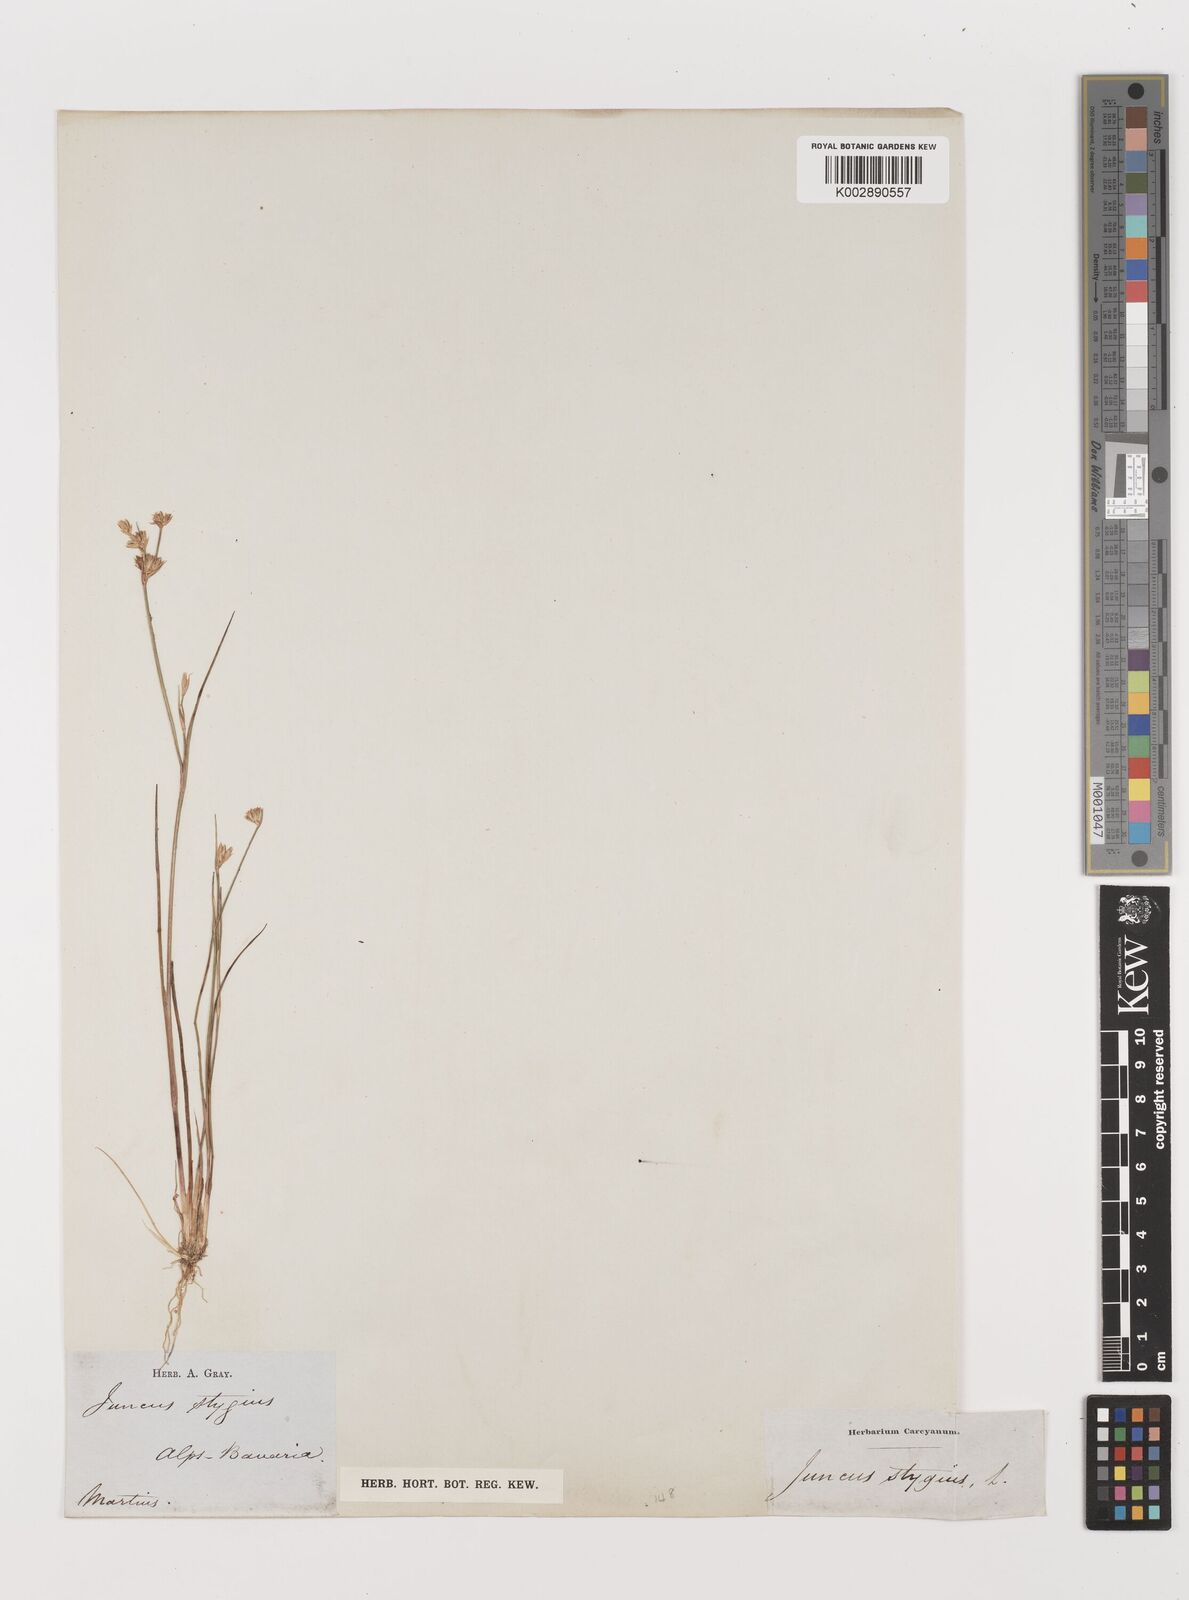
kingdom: Plantae
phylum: Tracheophyta
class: Liliopsida
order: Poales
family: Juncaceae
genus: Juncus
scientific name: Juncus stygius
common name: Bog rush
